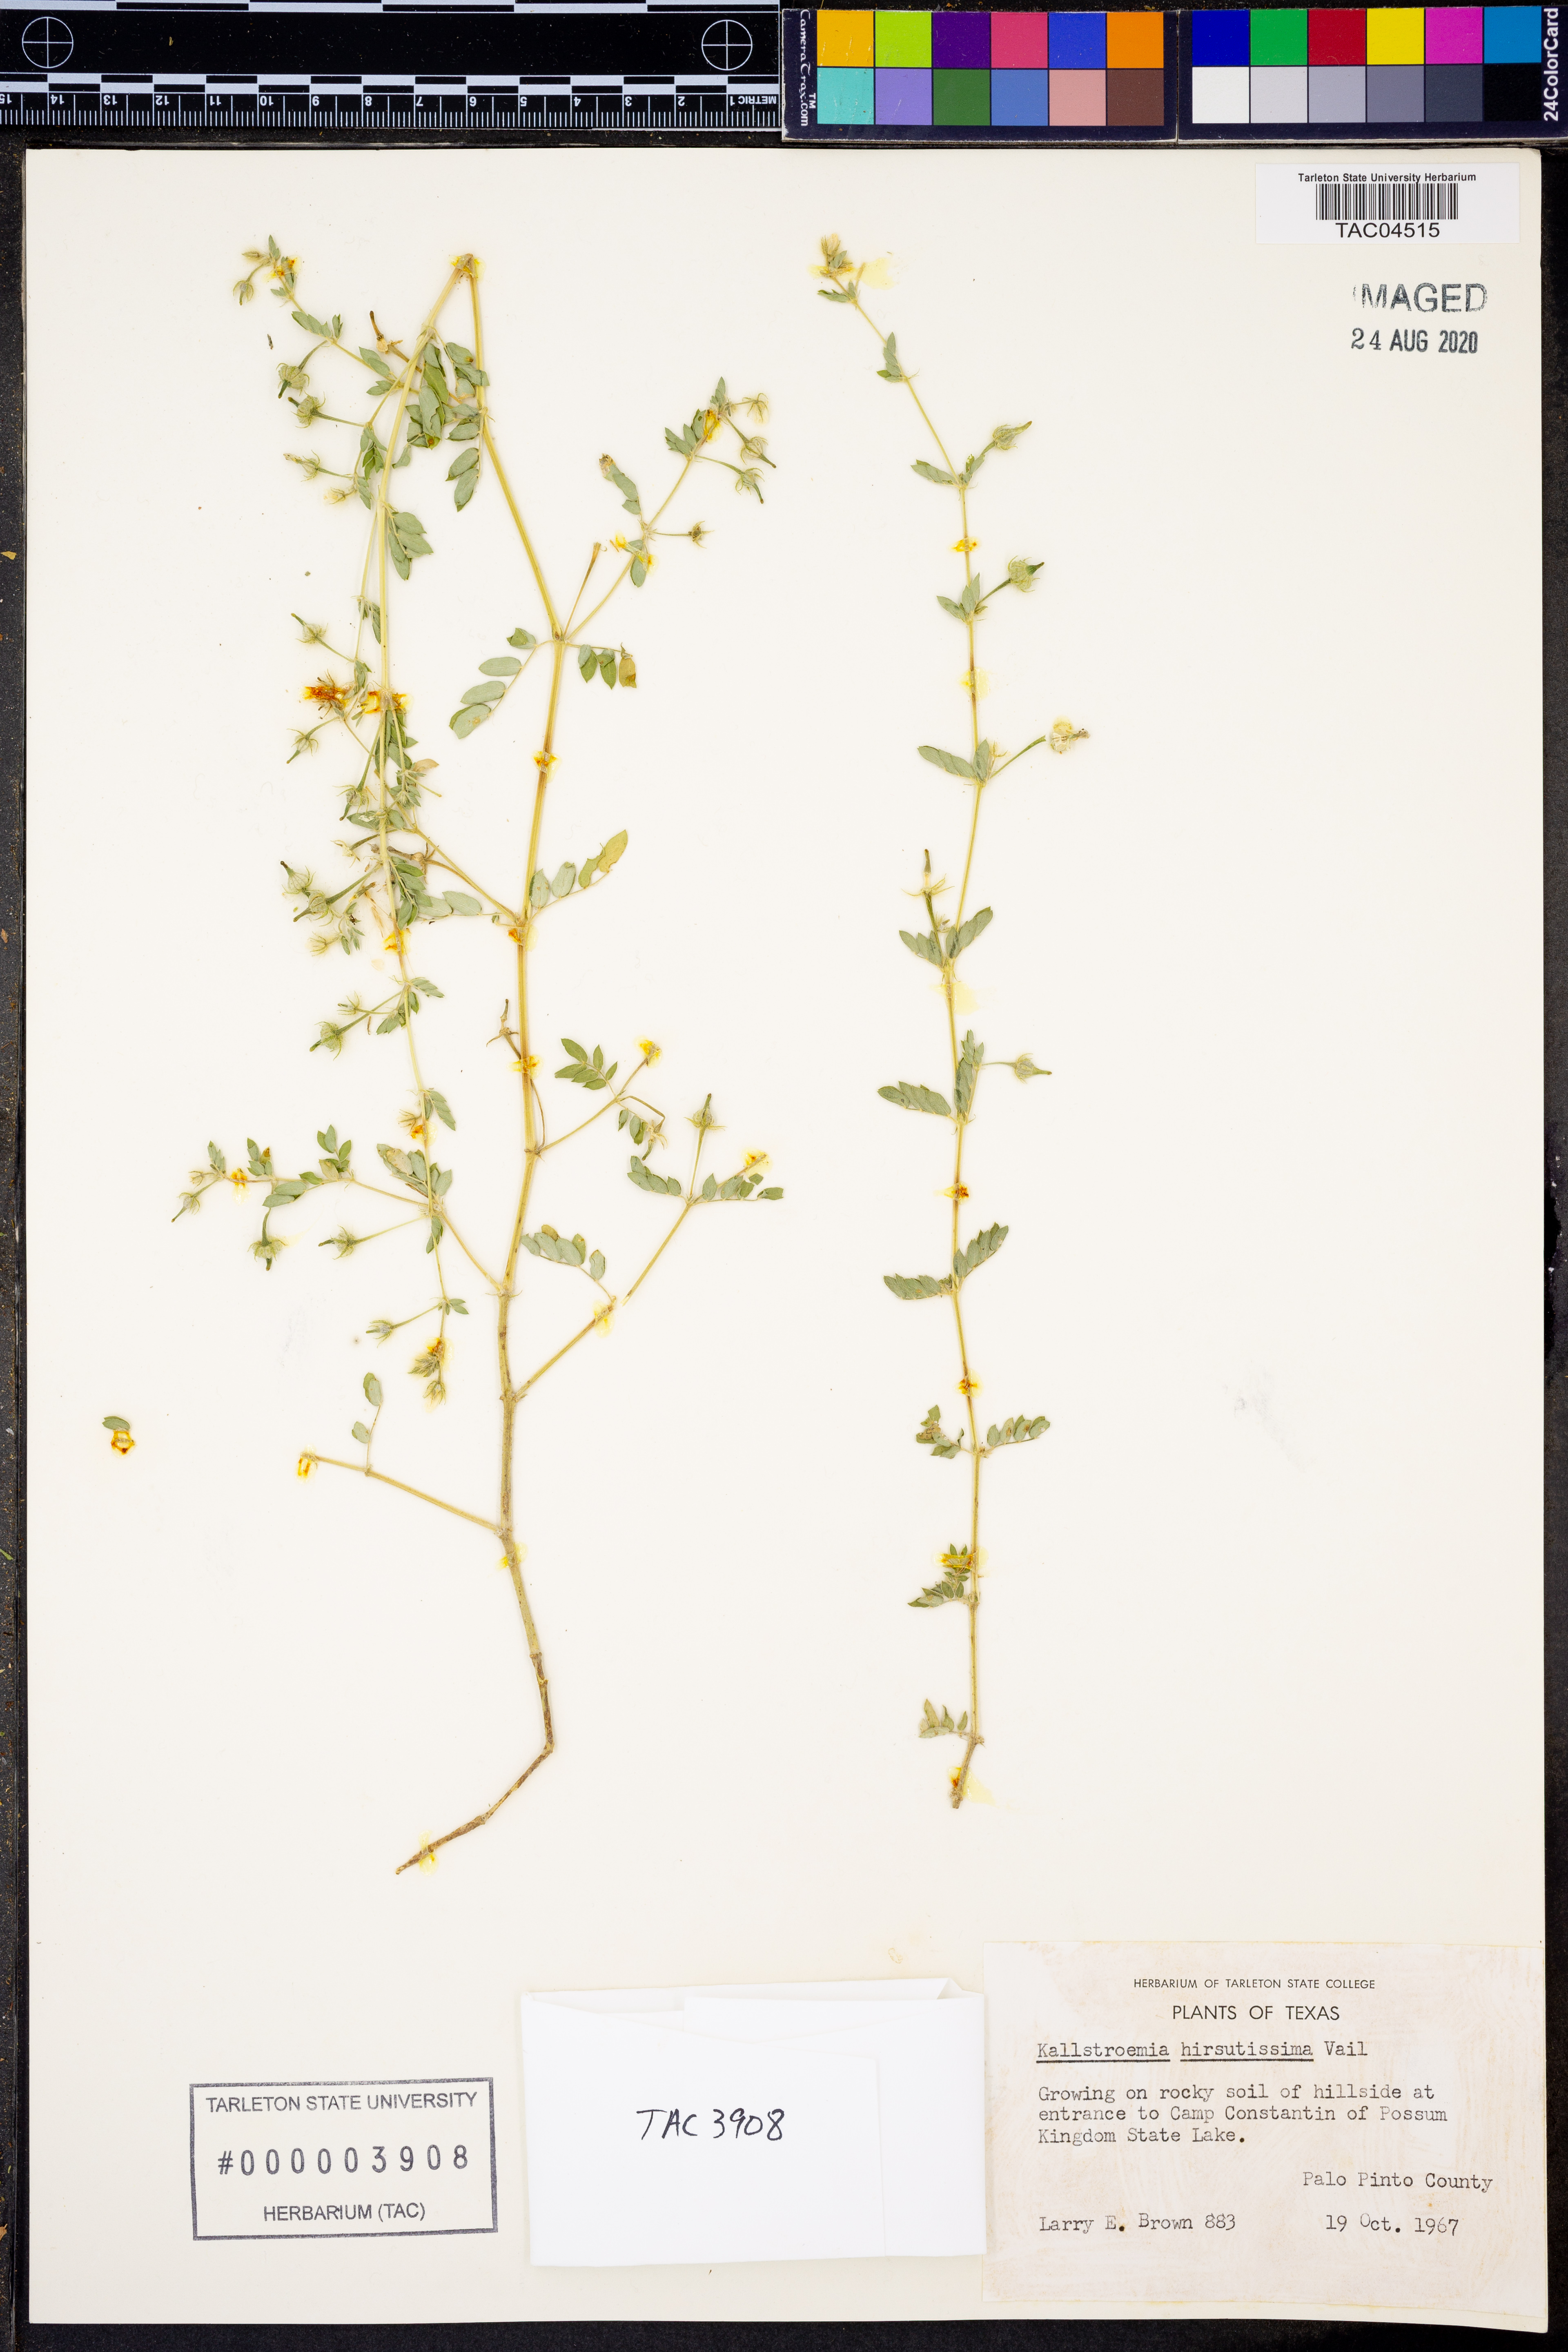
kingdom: Plantae
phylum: Tracheophyta
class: Magnoliopsida
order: Zygophyllales
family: Zygophyllaceae
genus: Kallstroemia
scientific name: Kallstroemia hirsutissima
